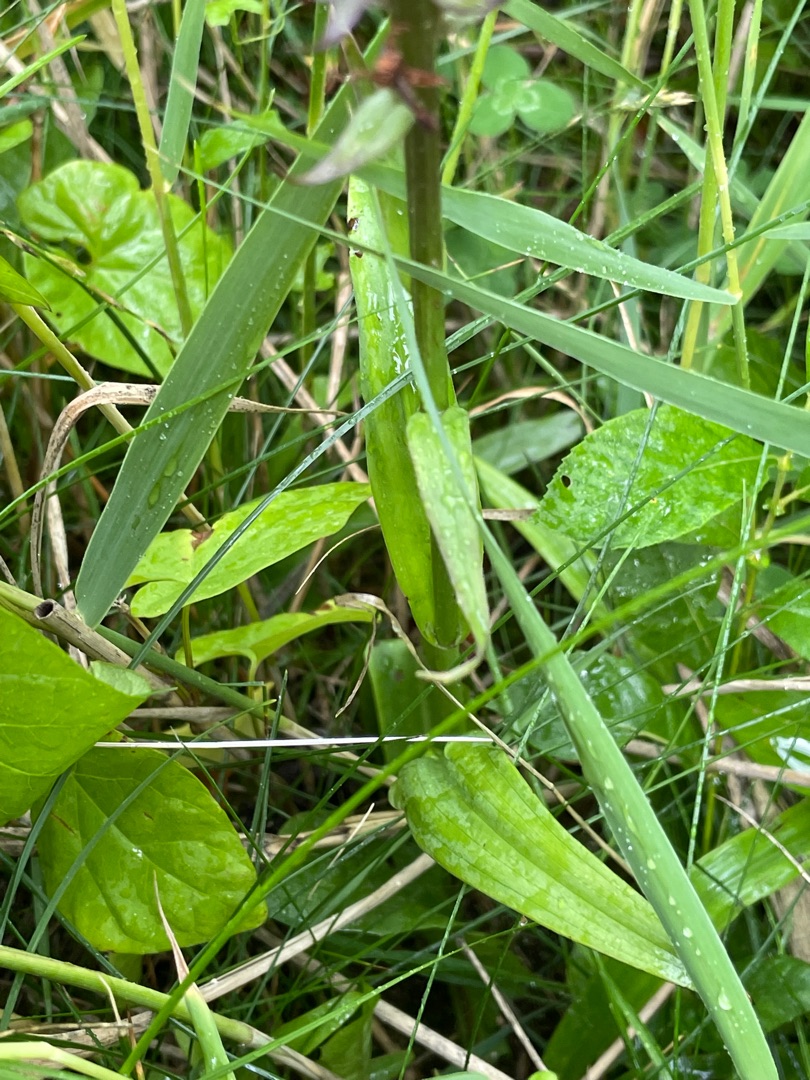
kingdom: Plantae
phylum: Tracheophyta
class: Liliopsida
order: Asparagales
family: Orchidaceae
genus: Dactylorhiza
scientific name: Dactylorhiza majalis
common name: Priklæbet gøgeurt
